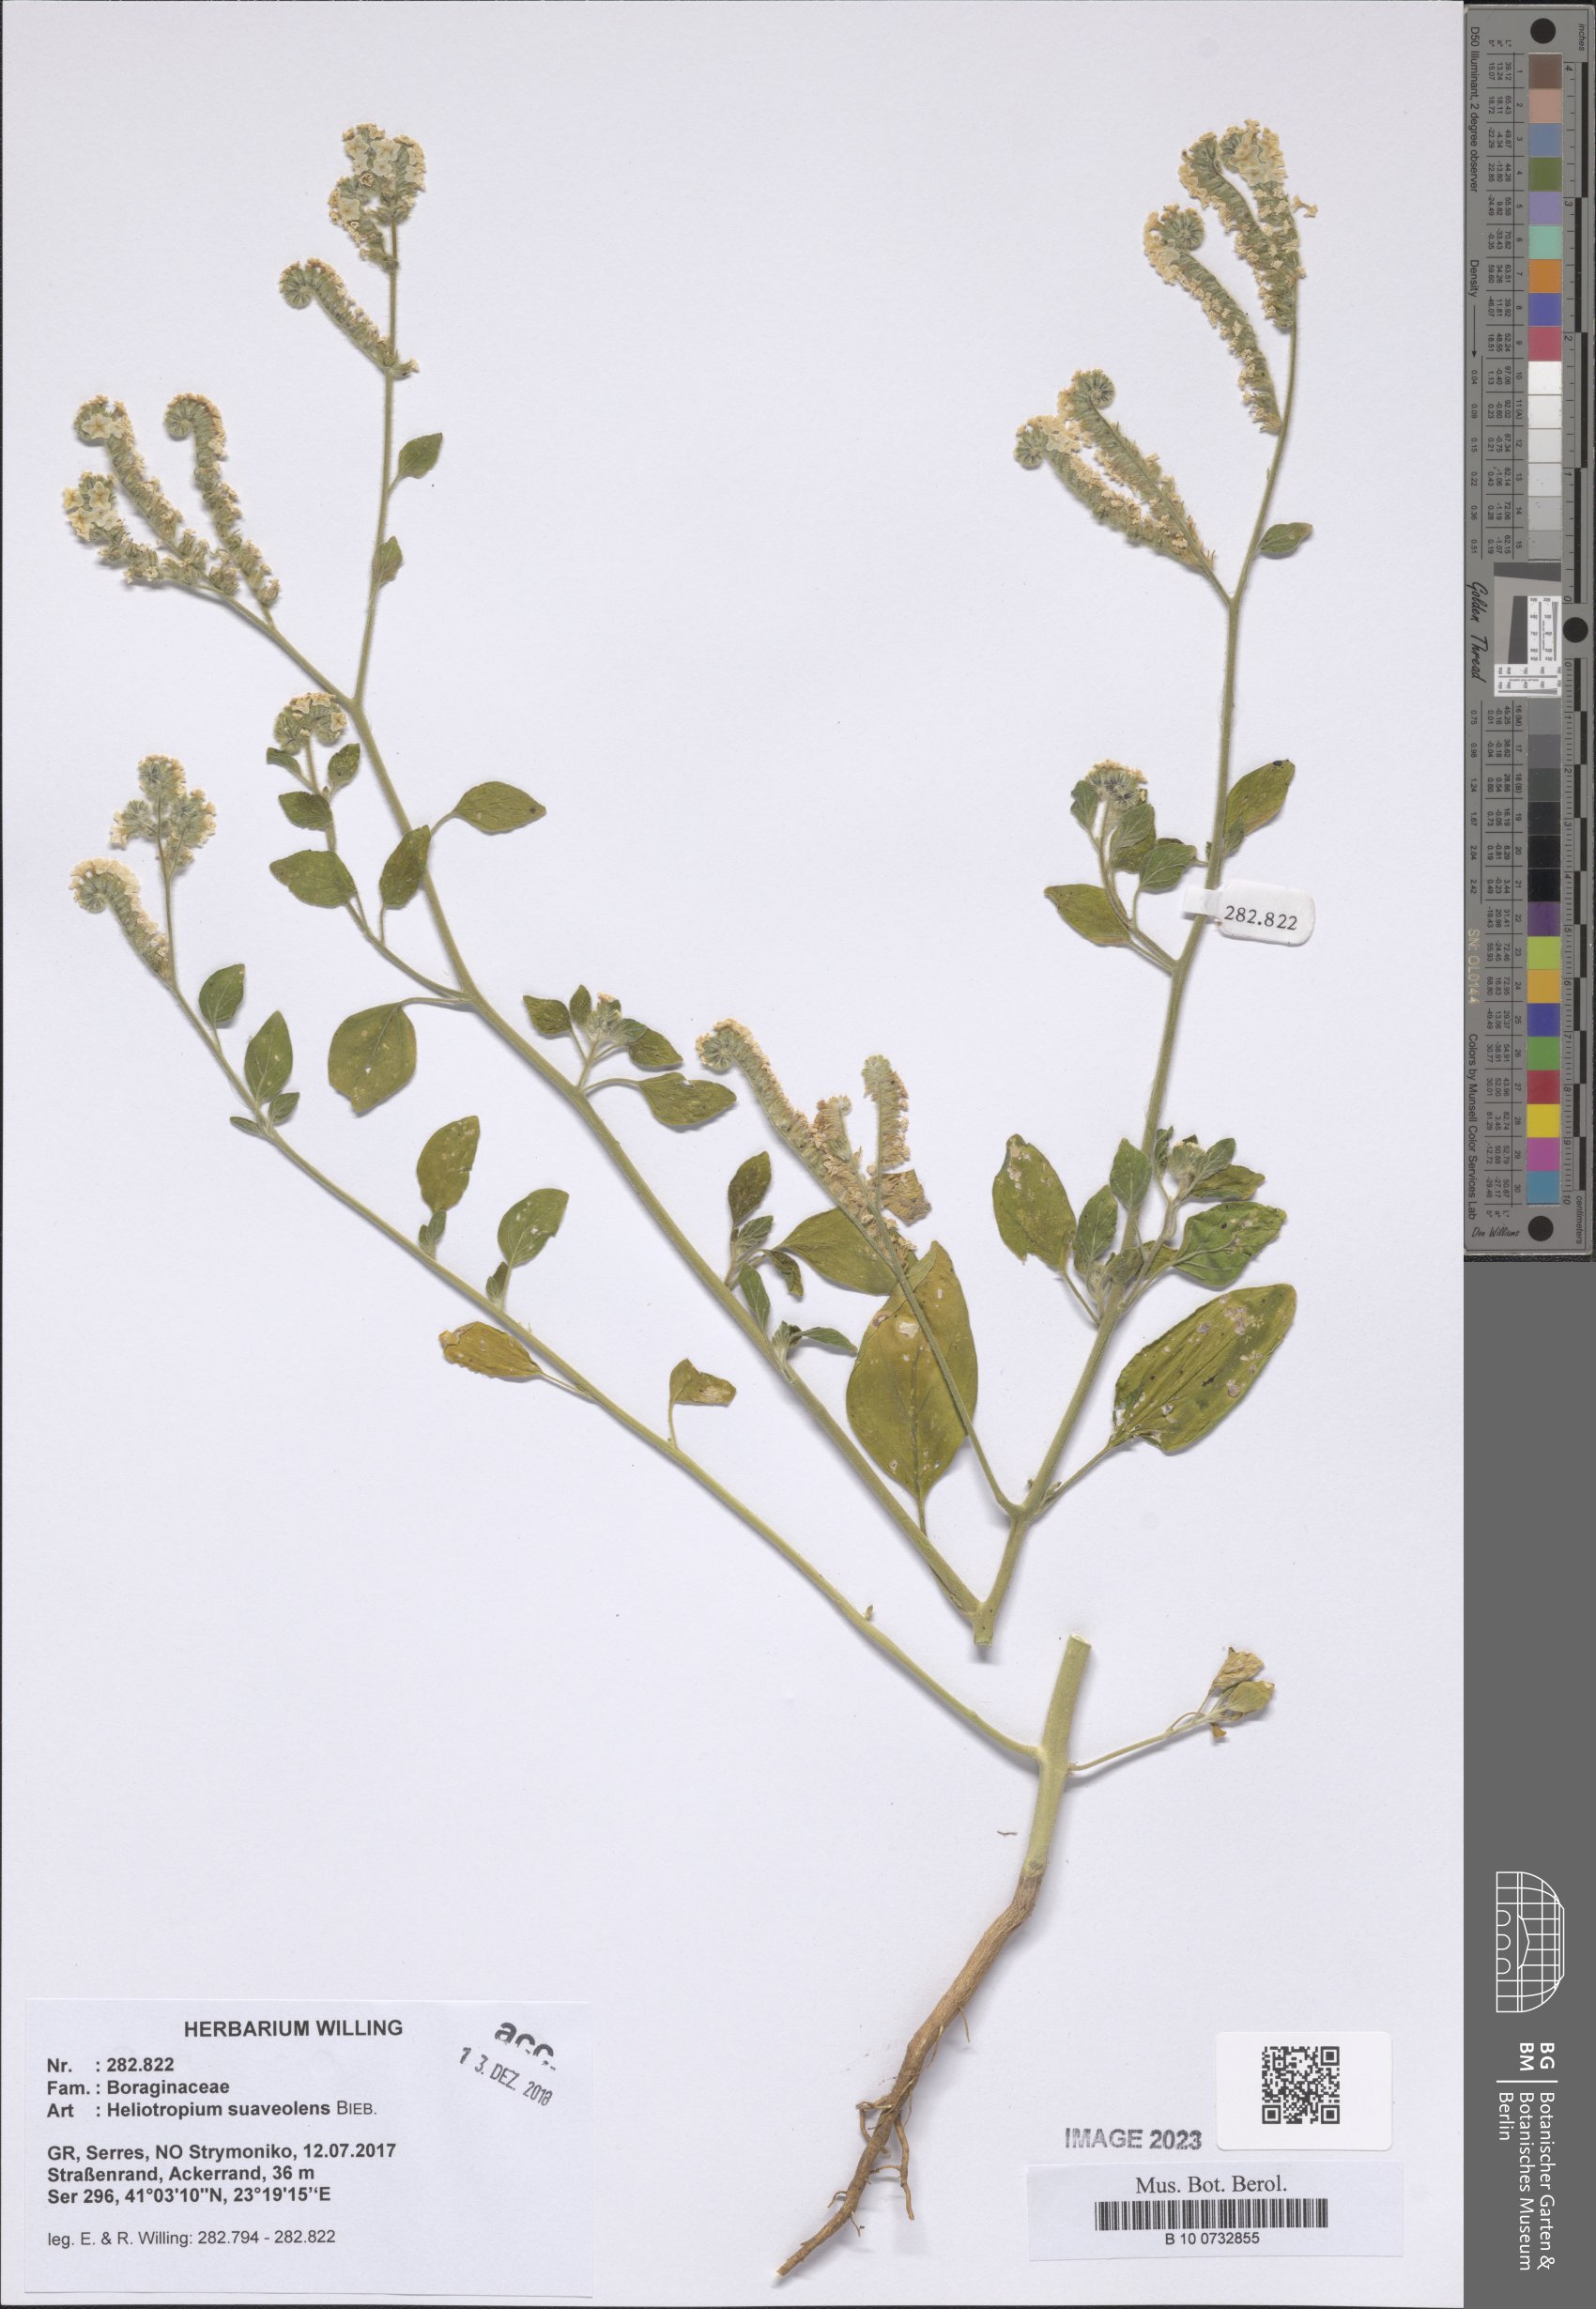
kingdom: Plantae
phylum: Tracheophyta
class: Magnoliopsida
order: Boraginales
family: Heliotropiaceae
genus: Heliotropium
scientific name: Heliotropium suaveolens
